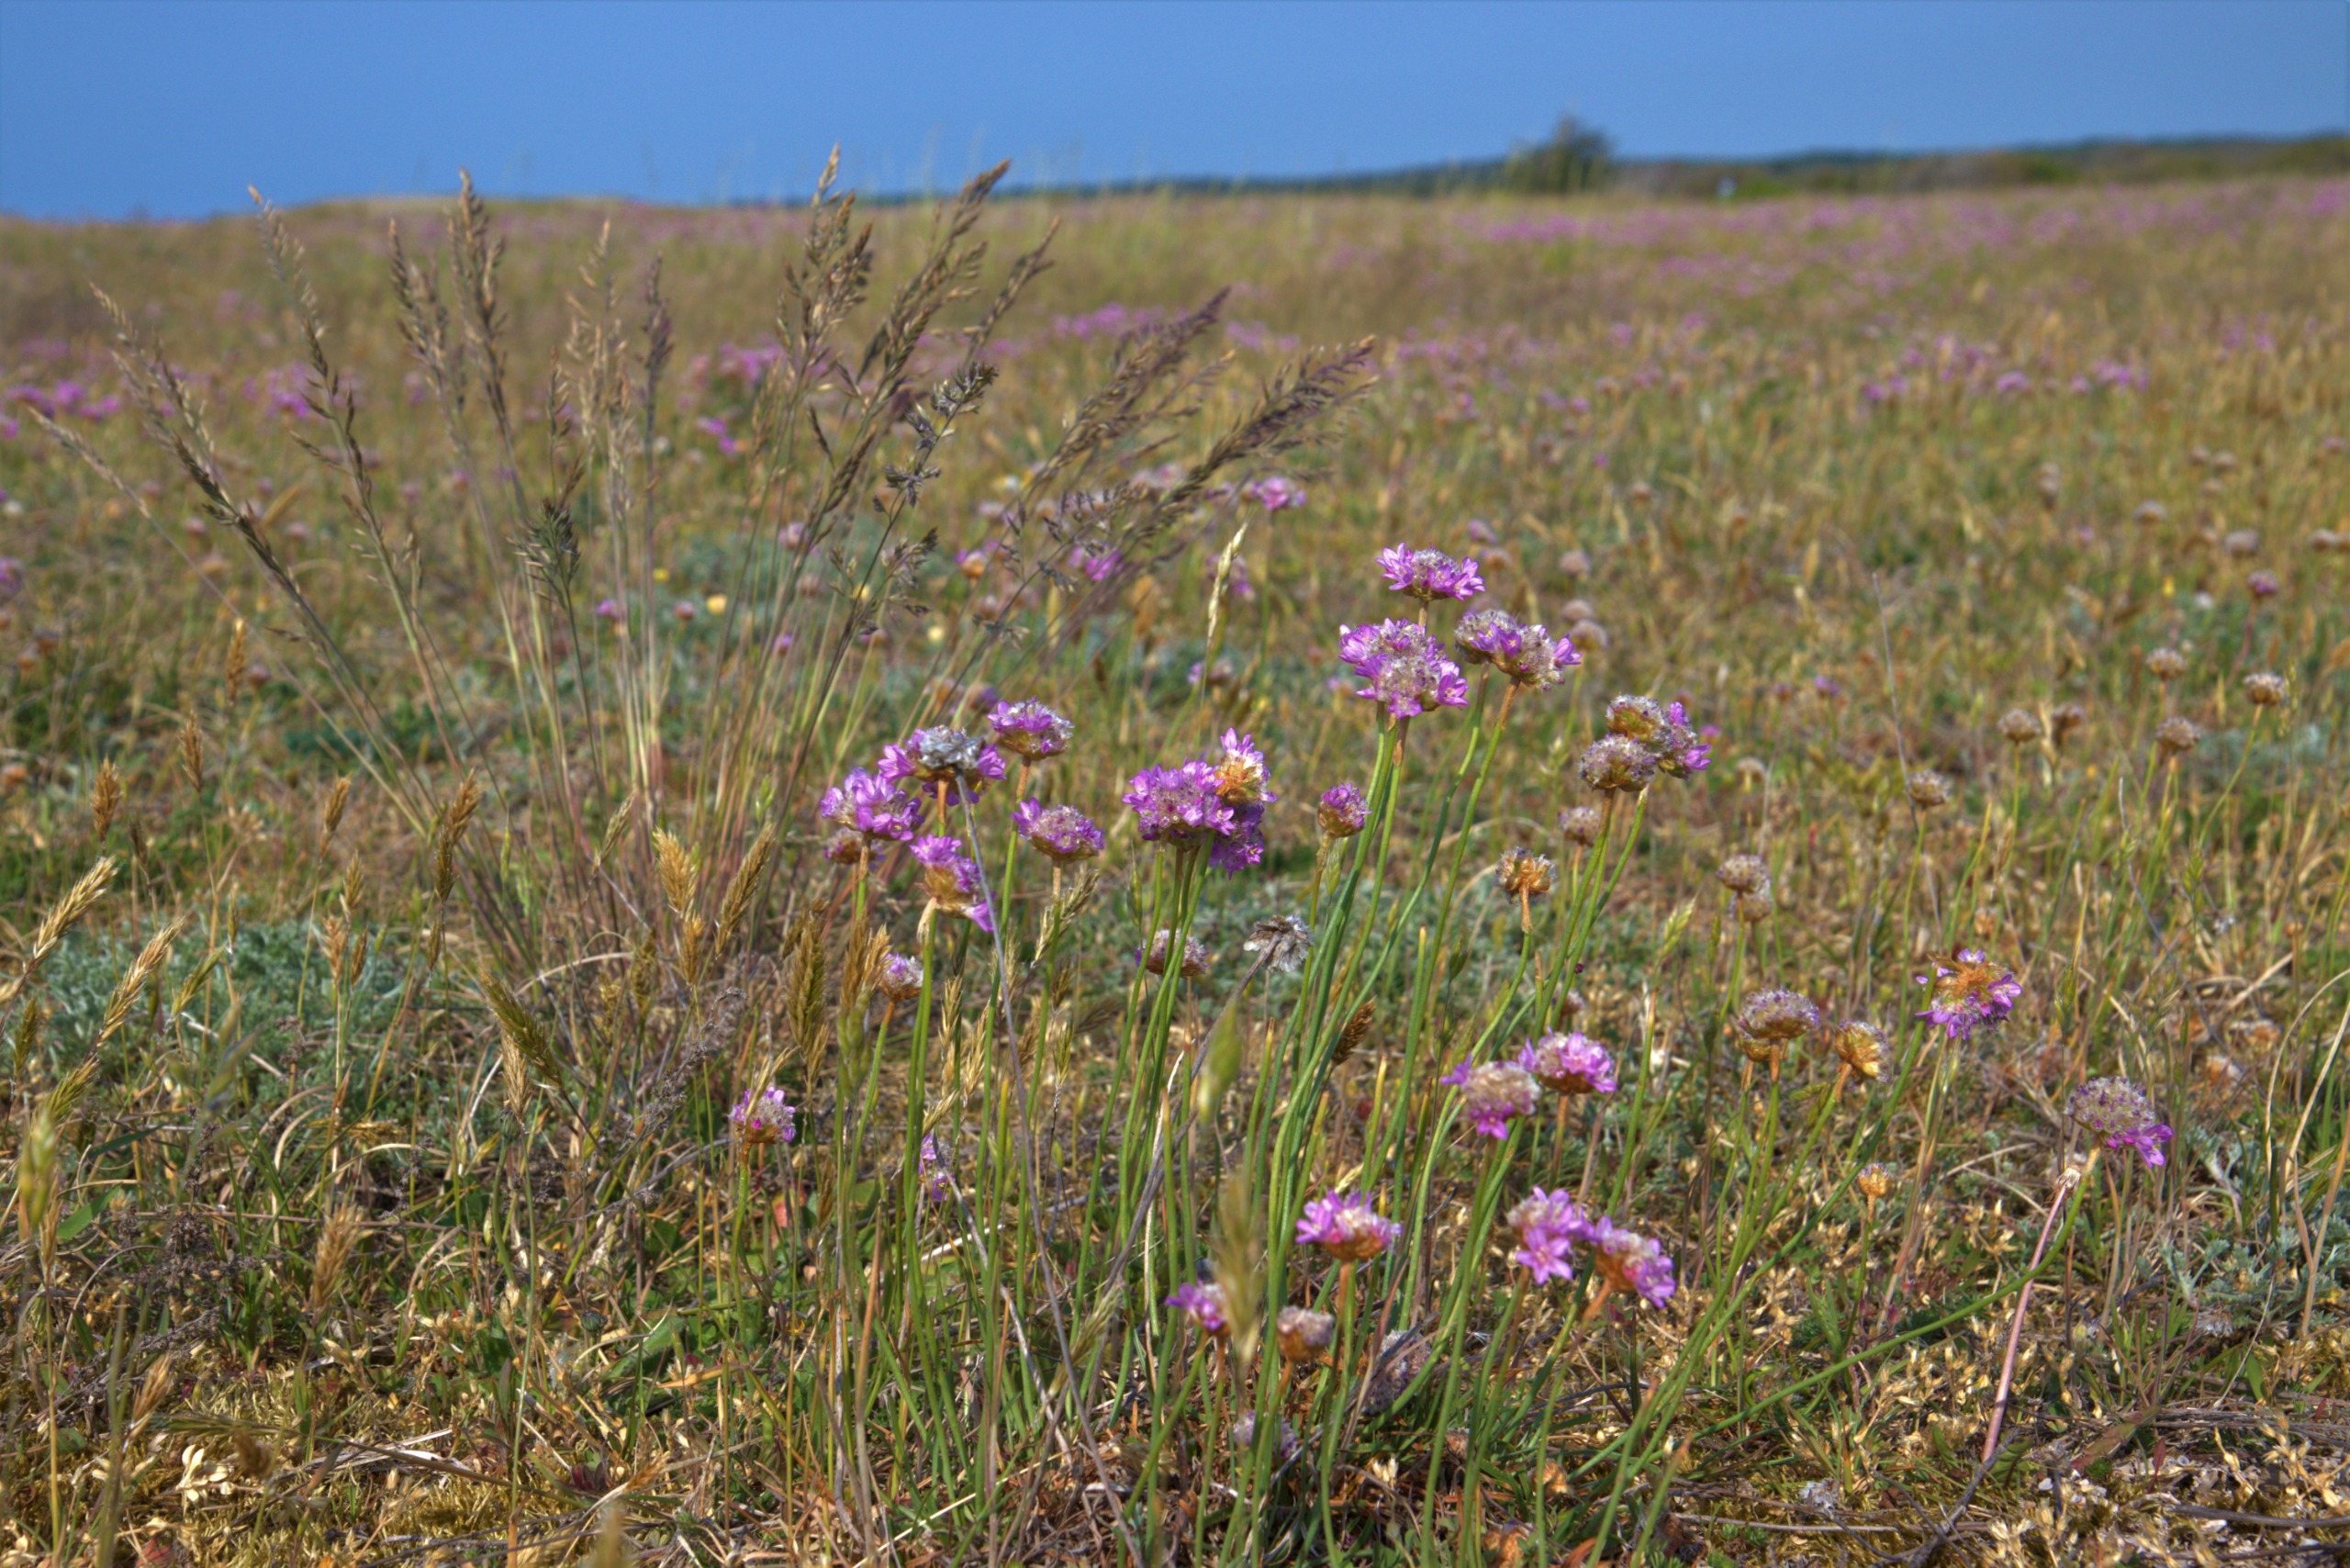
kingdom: Plantae
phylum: Tracheophyta
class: Magnoliopsida
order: Caryophyllales
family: Plumbaginaceae
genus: Armeria
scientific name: Armeria maritima
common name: Engelskgræs
